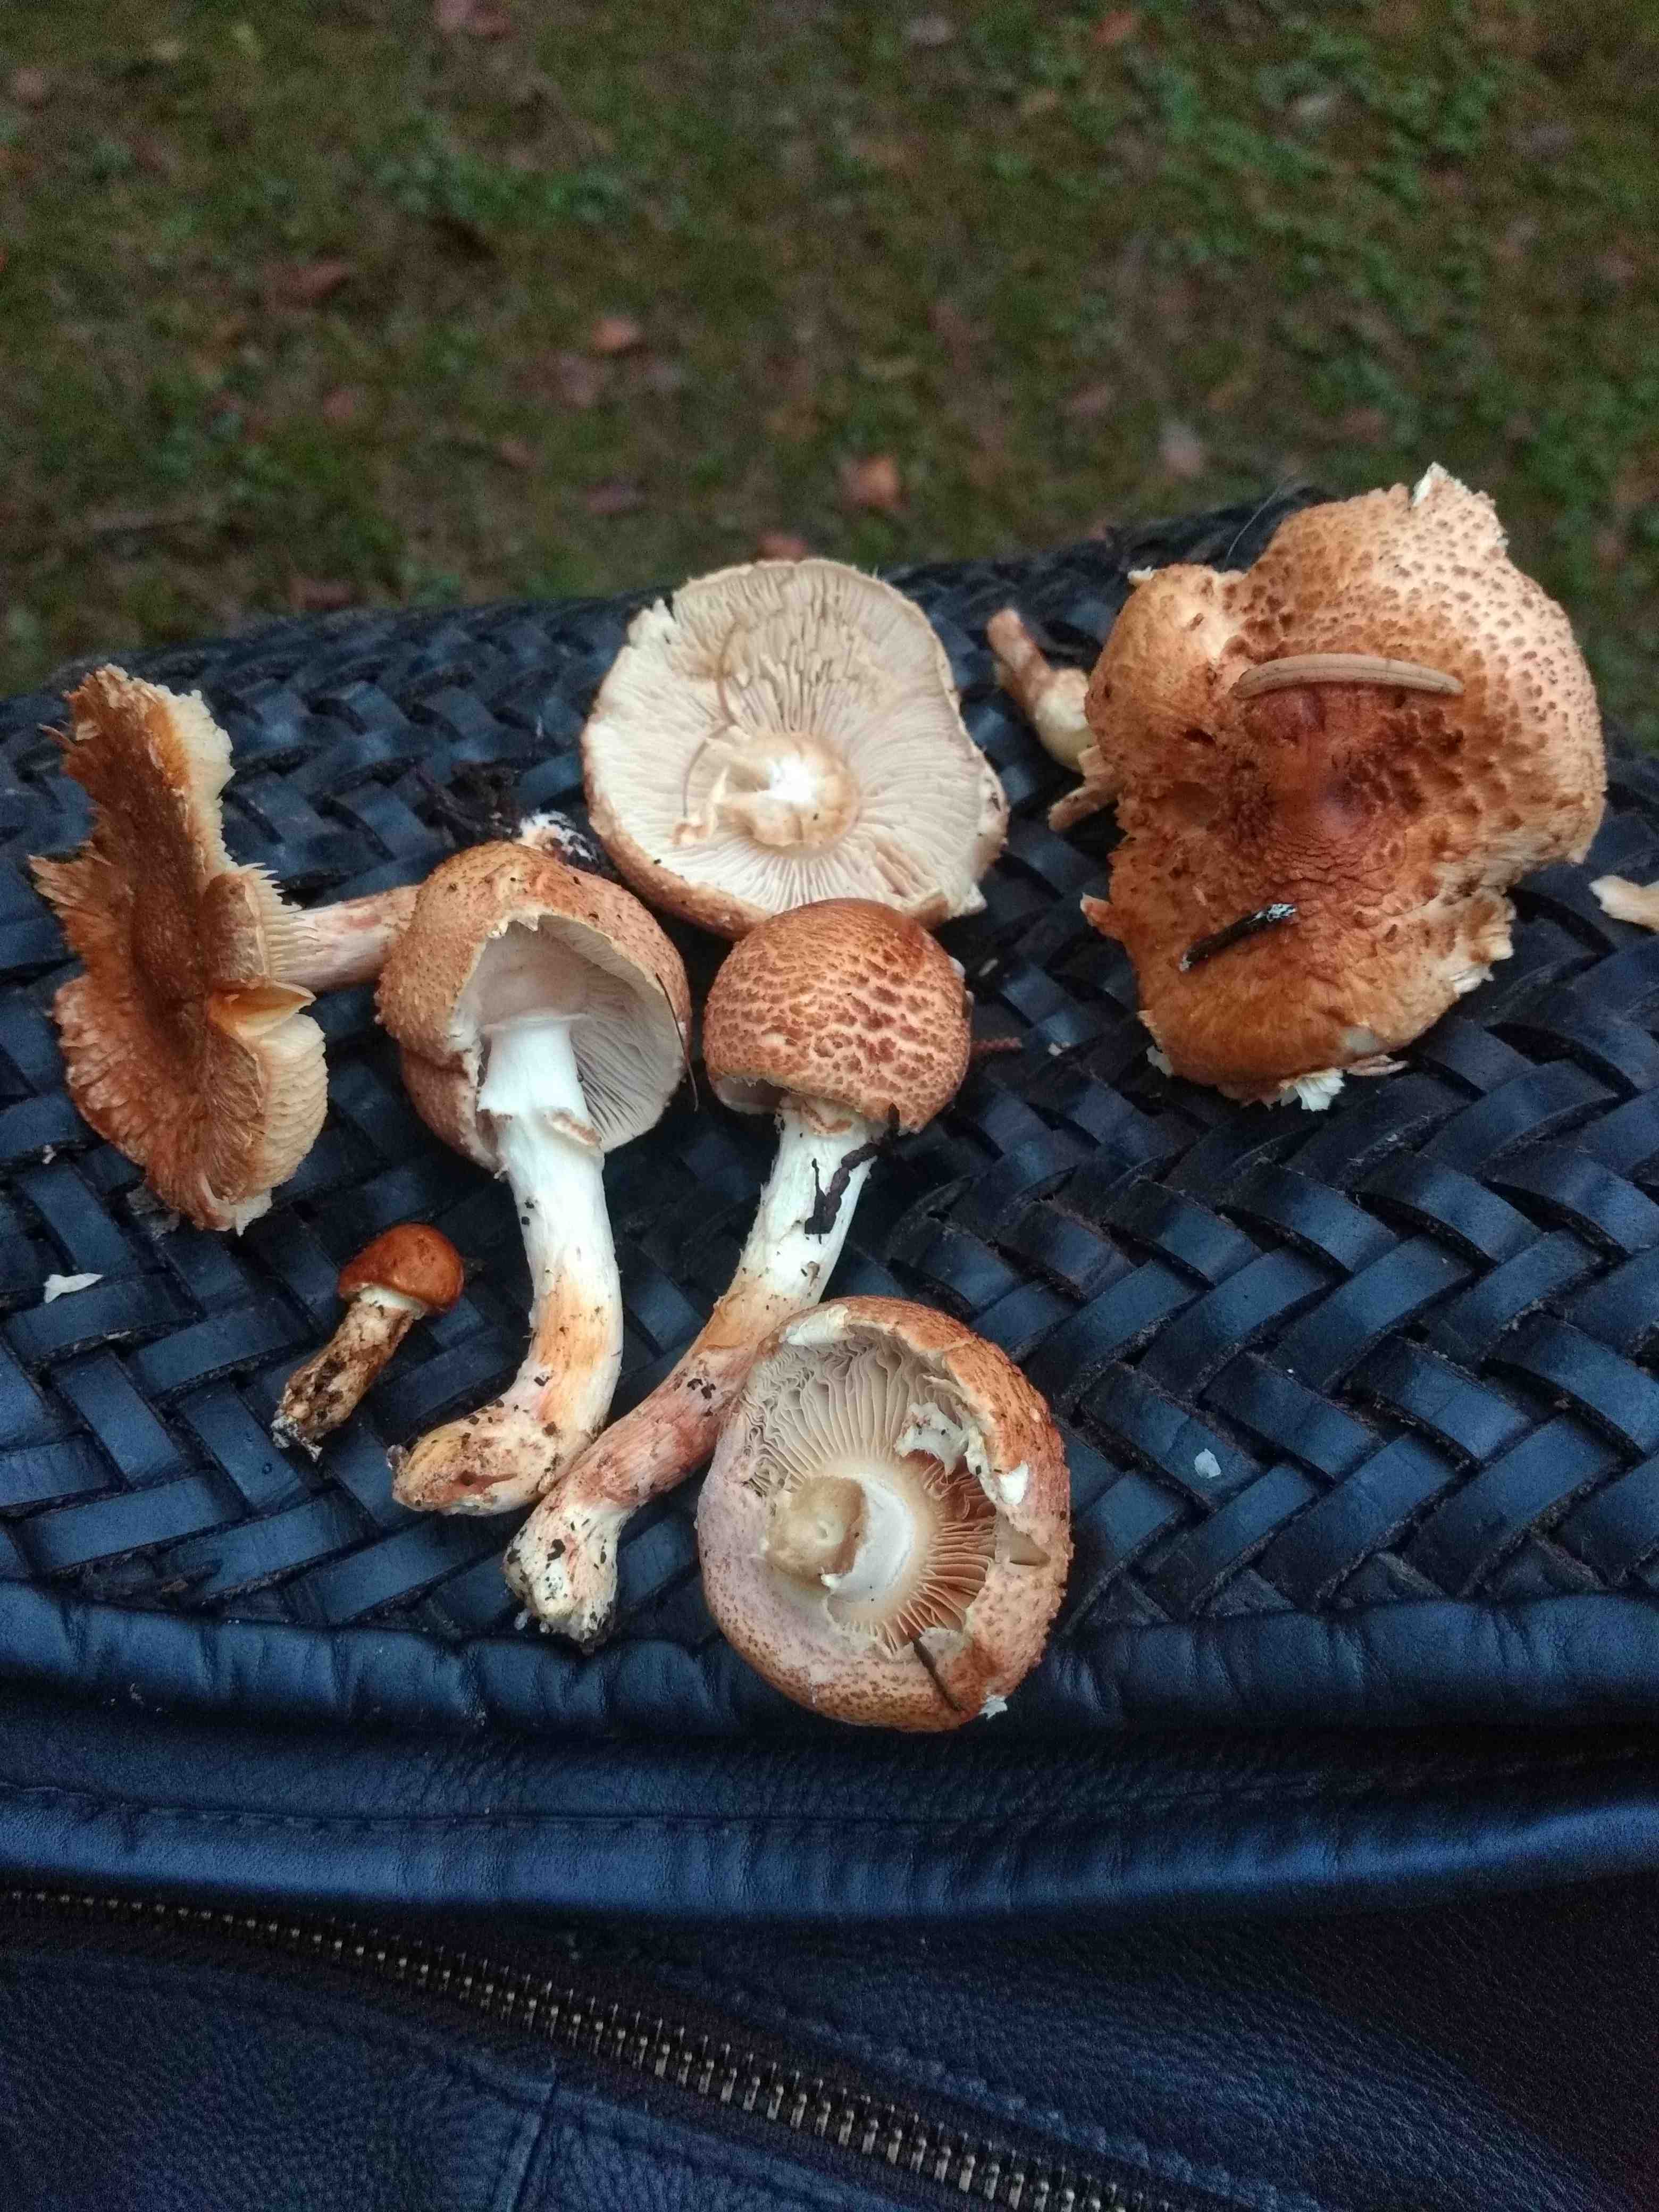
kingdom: Fungi
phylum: Basidiomycota
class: Agaricomycetes
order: Agaricales
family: Agaricaceae
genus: Lepiota
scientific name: Lepiota ochraceofulva
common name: sødtduftende parasolhat
